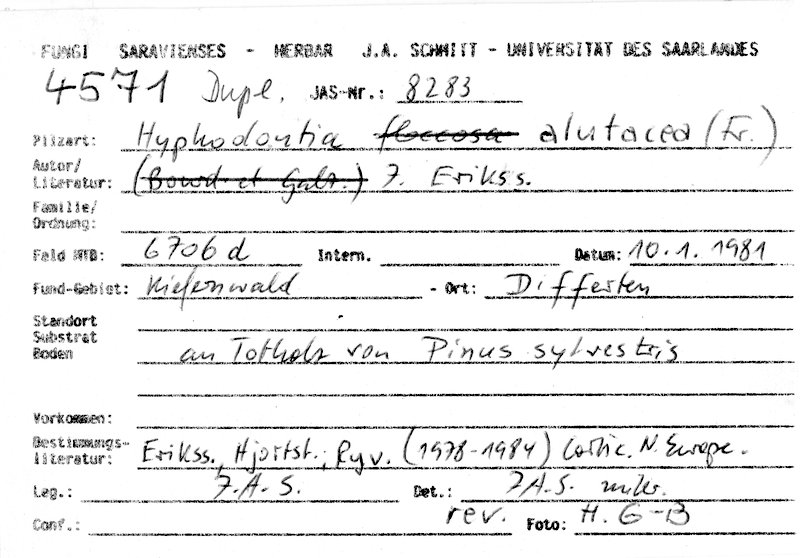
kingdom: Fungi
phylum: Basidiomycota
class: Agaricomycetes
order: Hymenochaetales
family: Schizoporaceae
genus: Alutaceodontia
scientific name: Alutaceodontia alutacea
